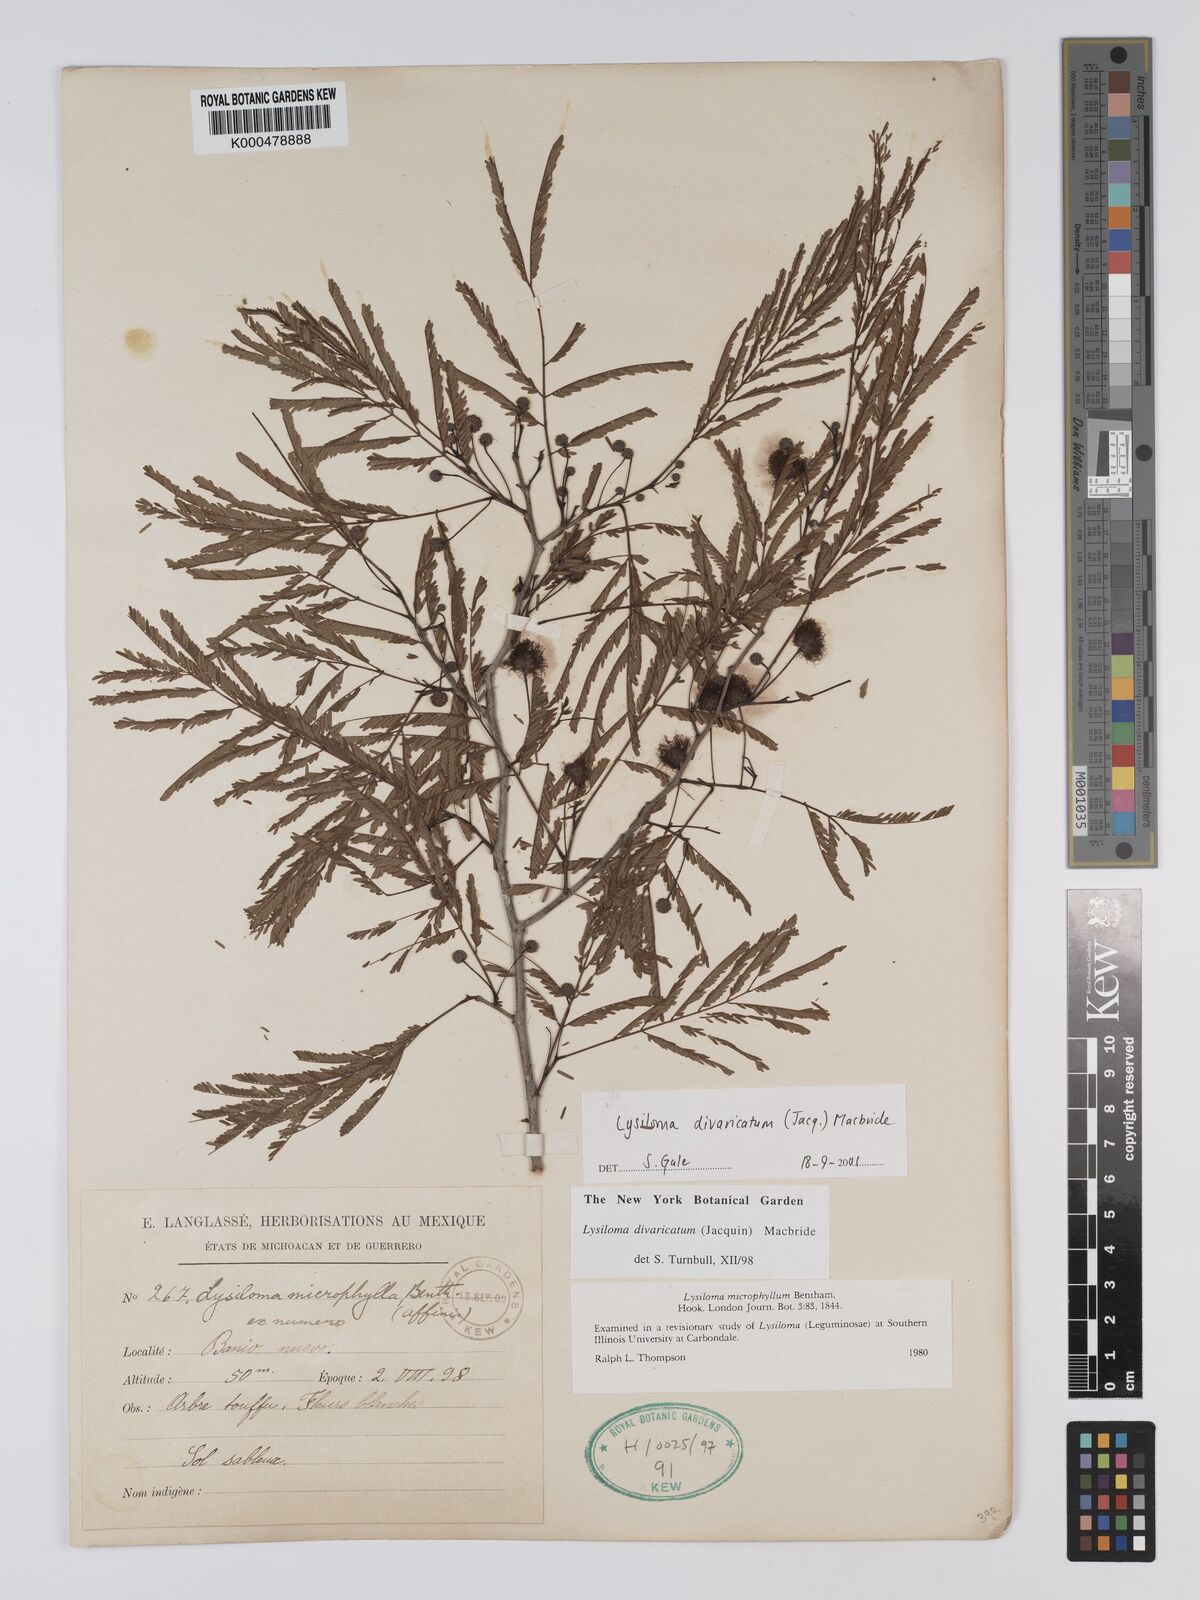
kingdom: Plantae
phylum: Tracheophyta
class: Magnoliopsida
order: Fabales
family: Fabaceae
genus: Lysiloma
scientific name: Lysiloma divaricatum
